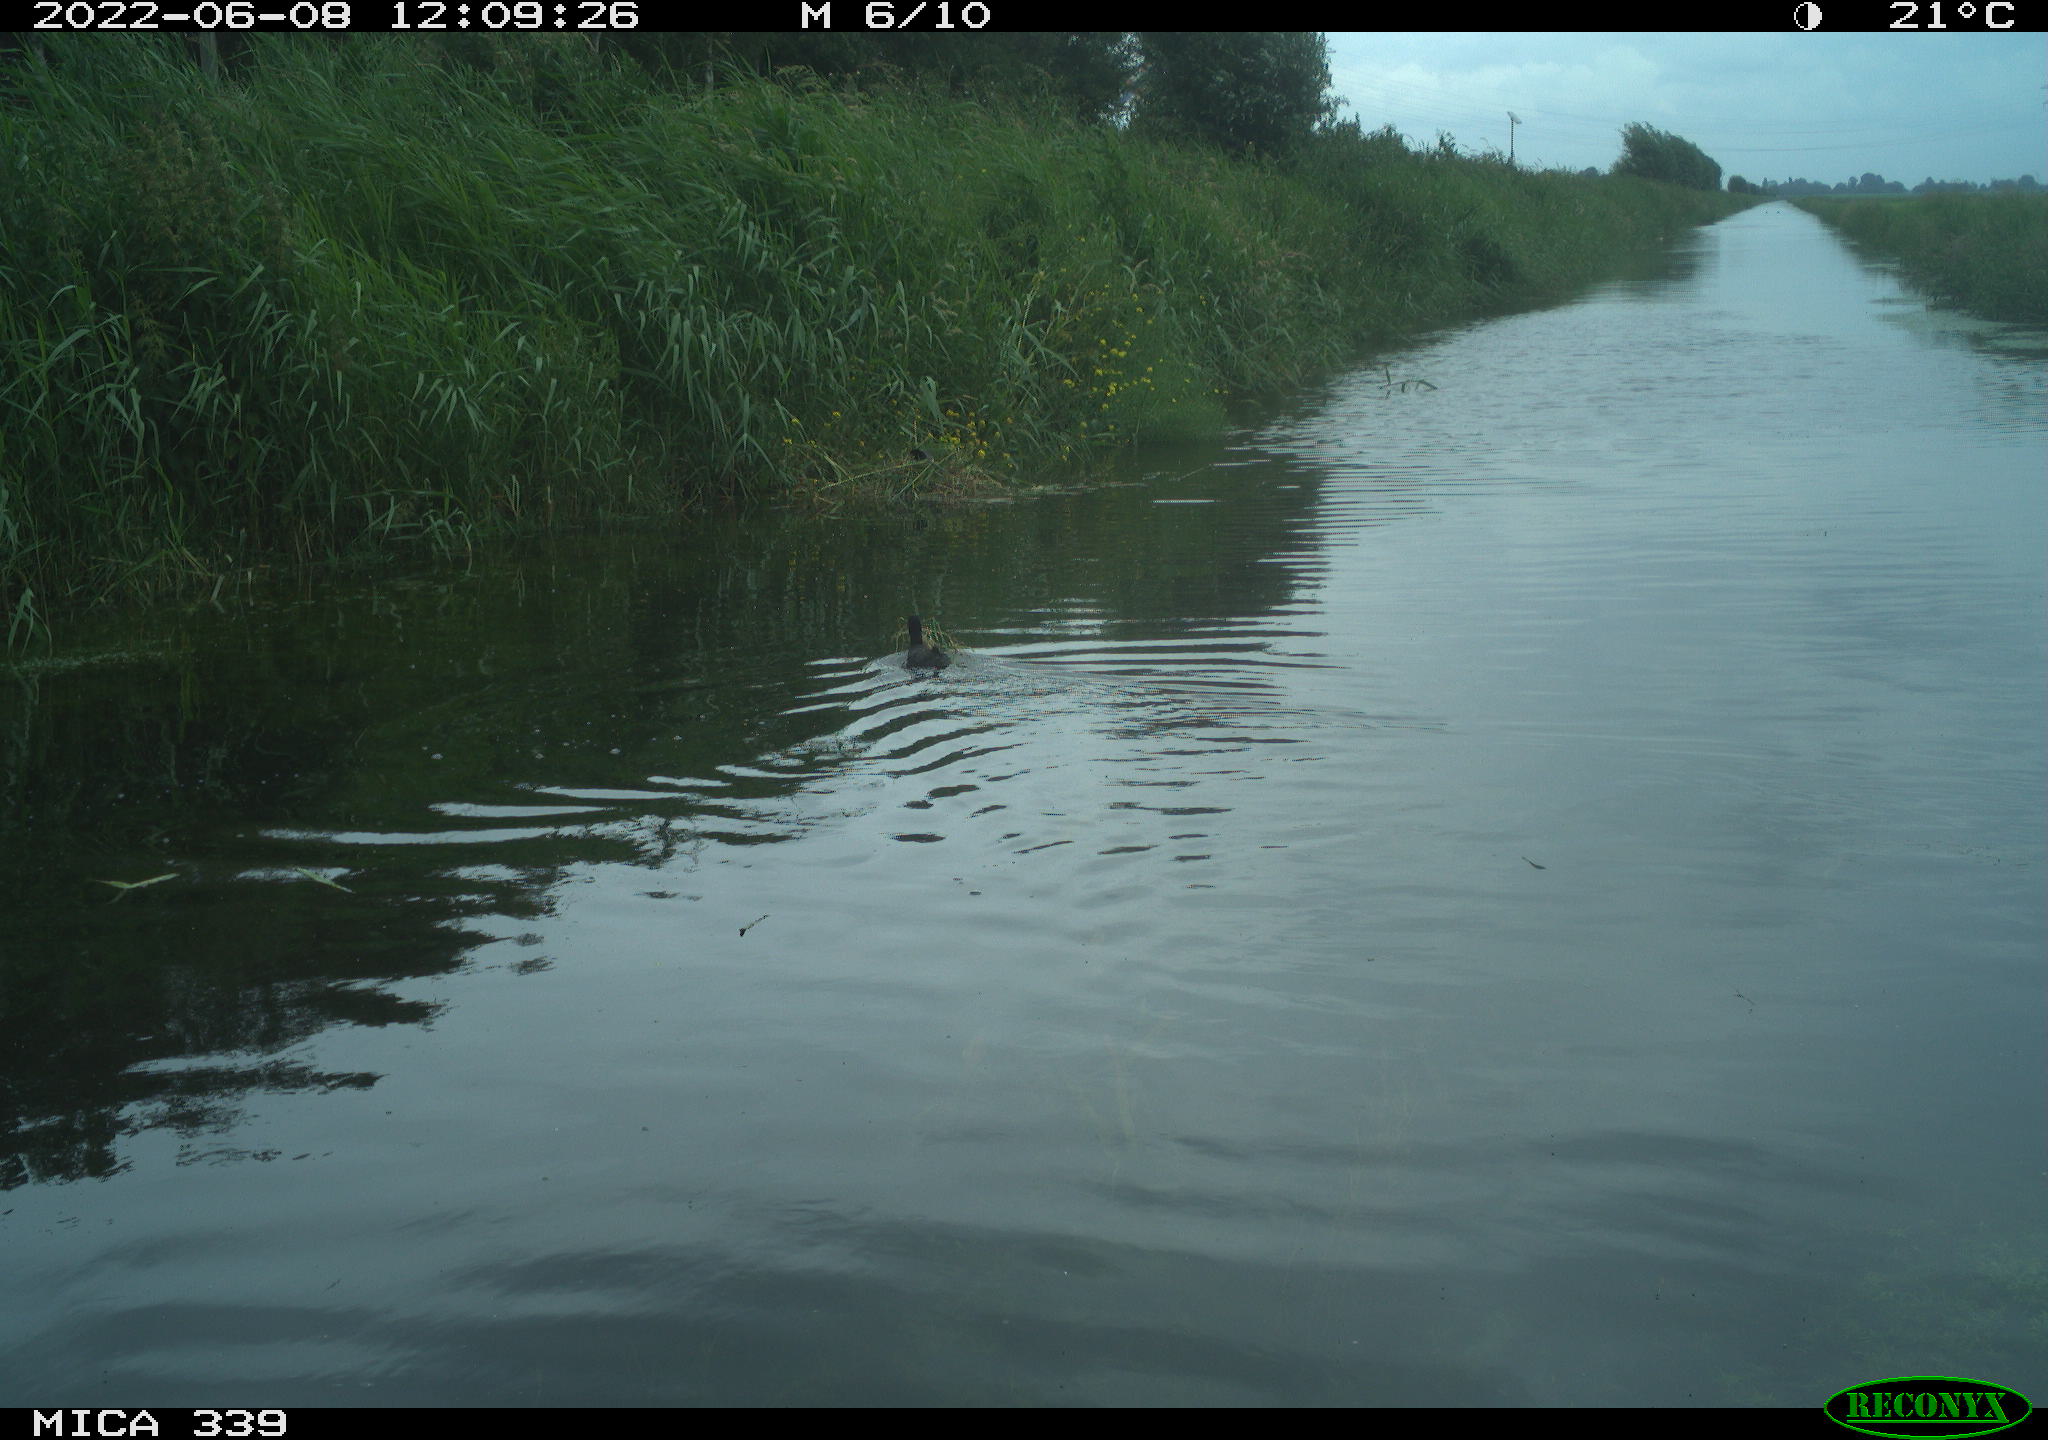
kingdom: Animalia
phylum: Chordata
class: Aves
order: Gruiformes
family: Rallidae
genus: Fulica
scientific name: Fulica atra
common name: Eurasian coot
